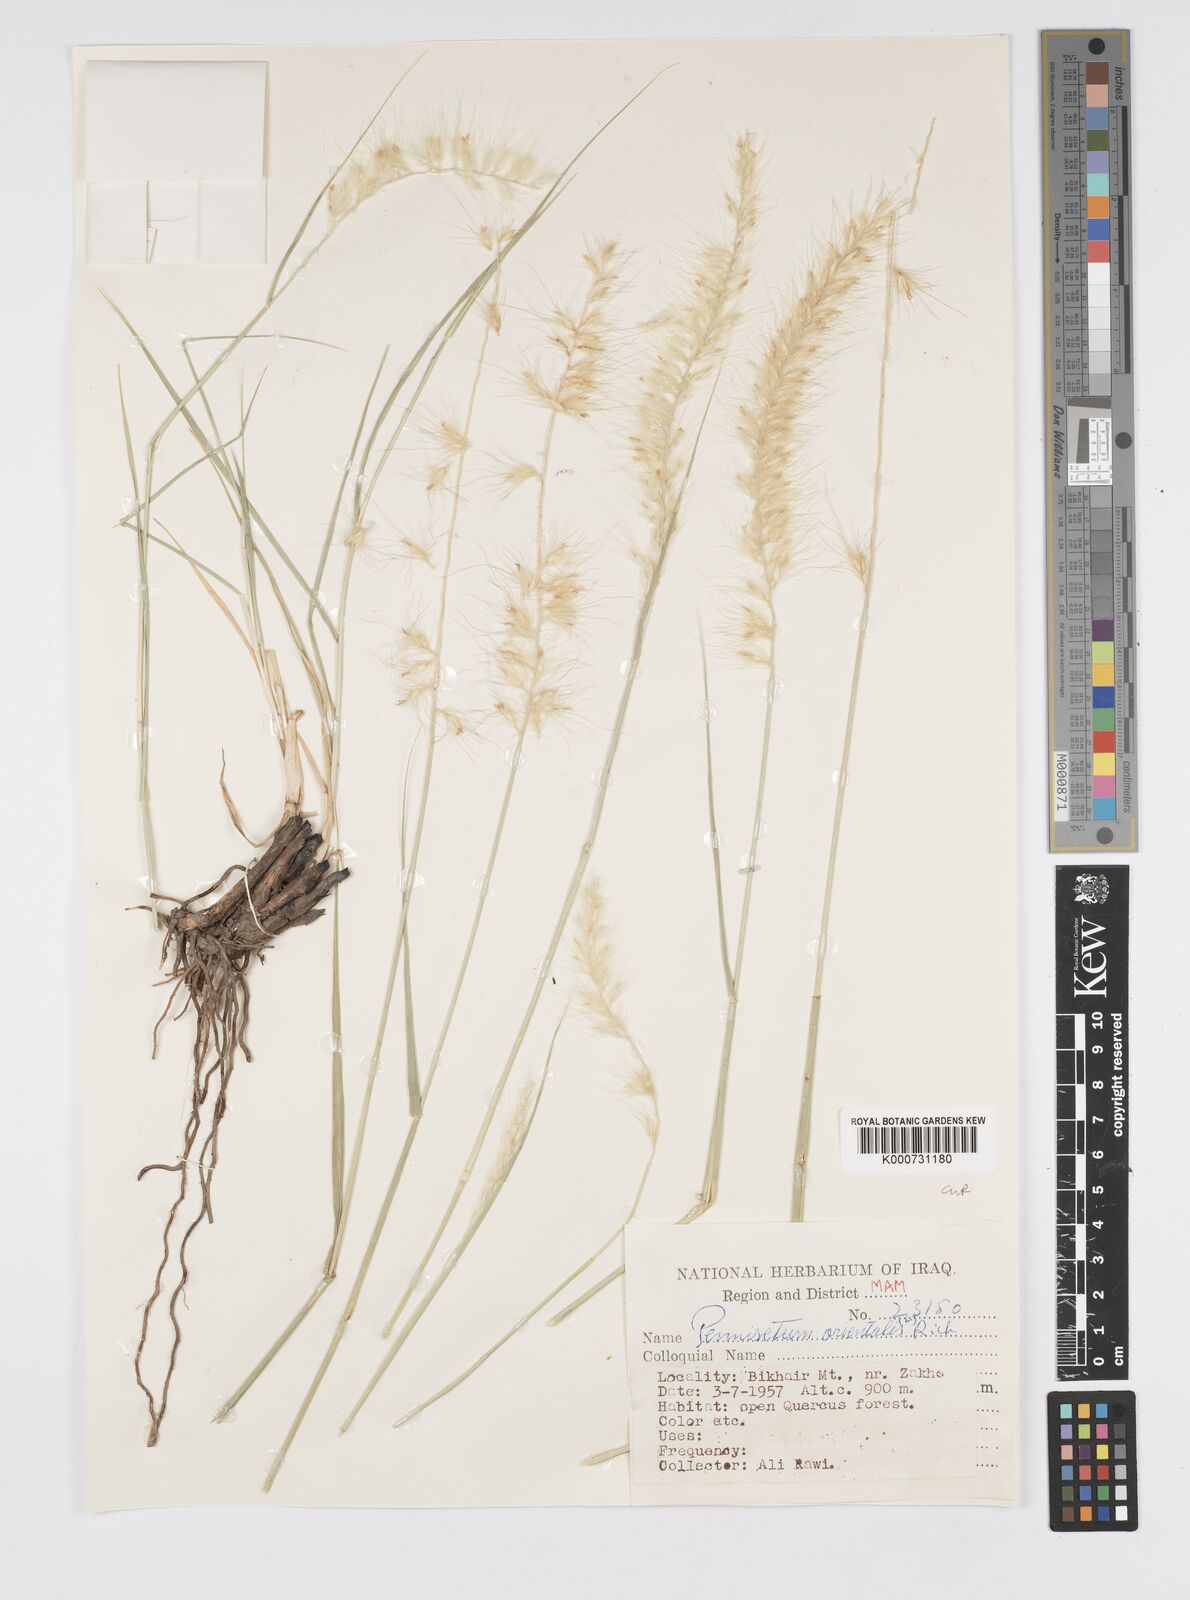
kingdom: Plantae
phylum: Tracheophyta
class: Liliopsida
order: Poales
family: Poaceae
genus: Cenchrus
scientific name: Cenchrus Pennisetum spec
